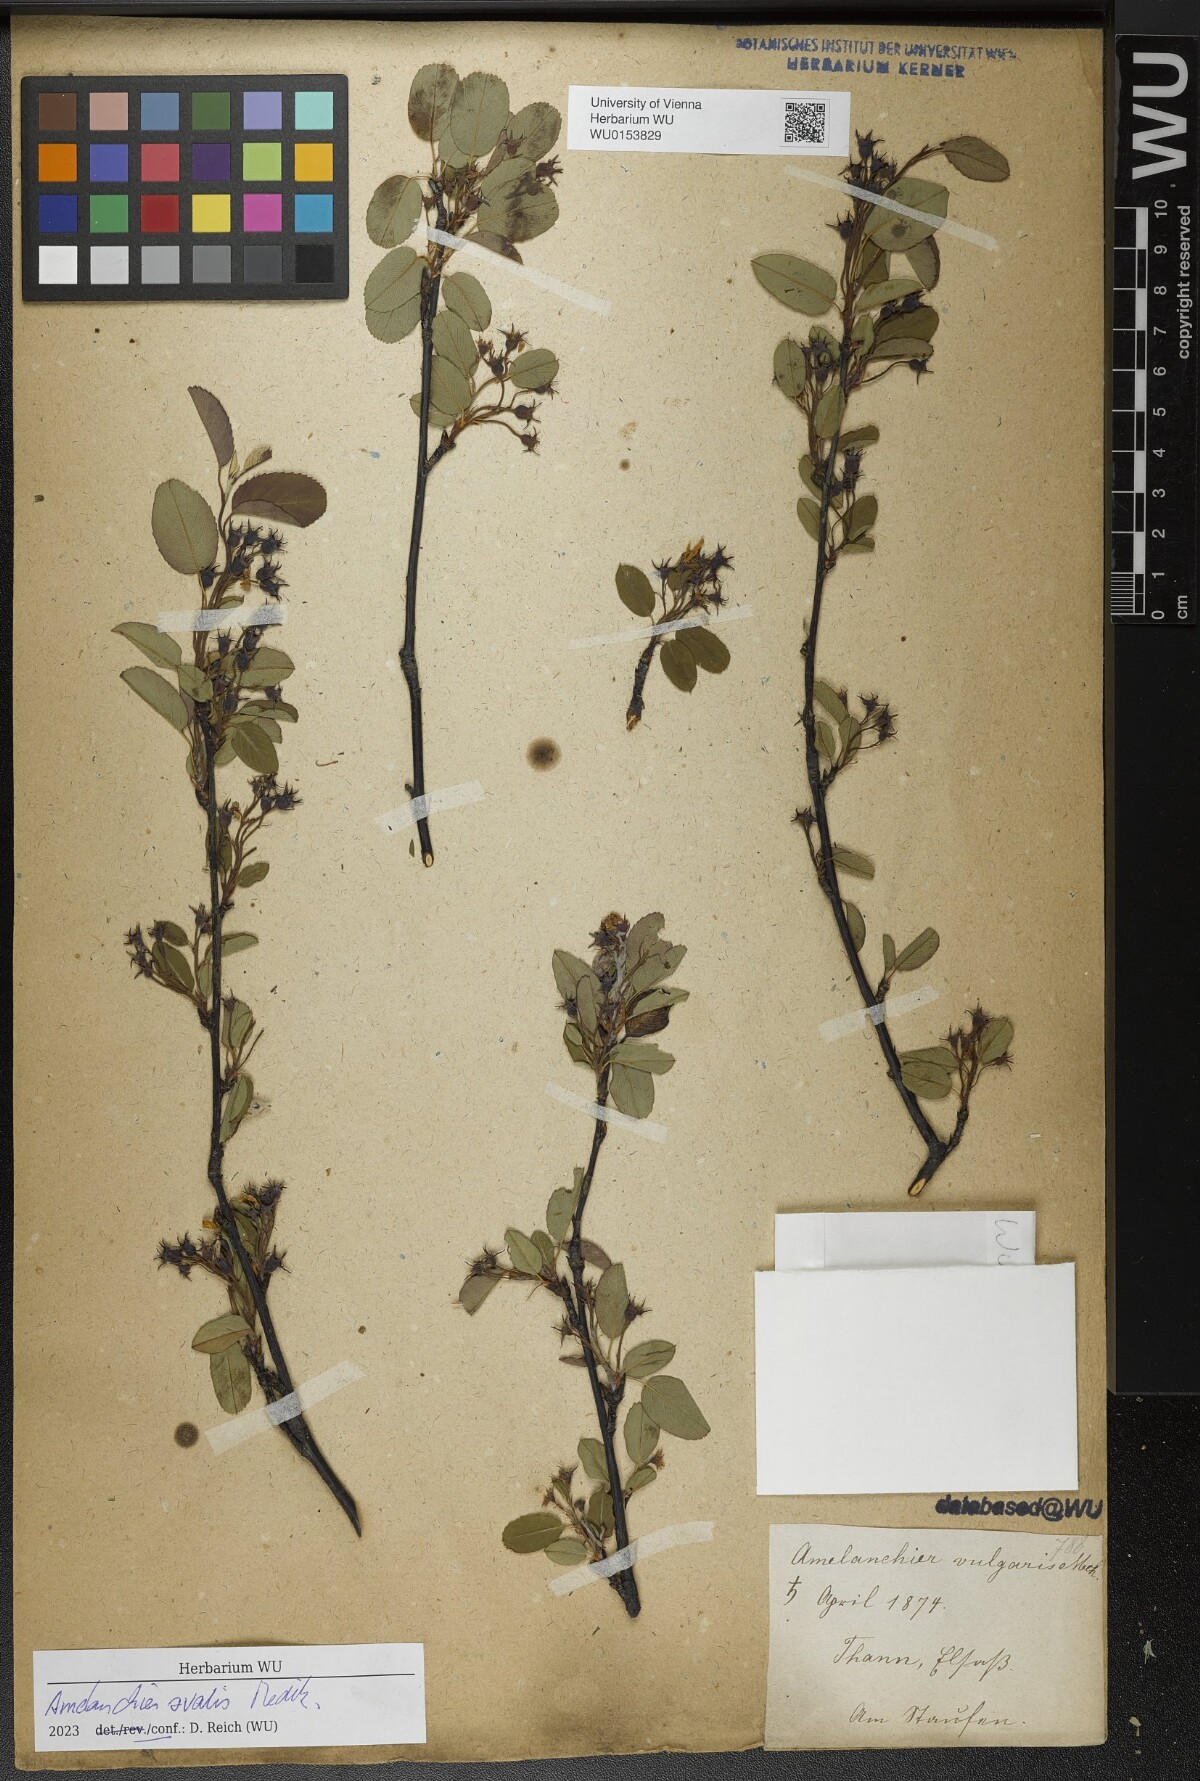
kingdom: Plantae
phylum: Tracheophyta
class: Magnoliopsida
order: Rosales
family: Rosaceae
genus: Amelanchier
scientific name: Amelanchier ovalis
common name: Serviceberry
